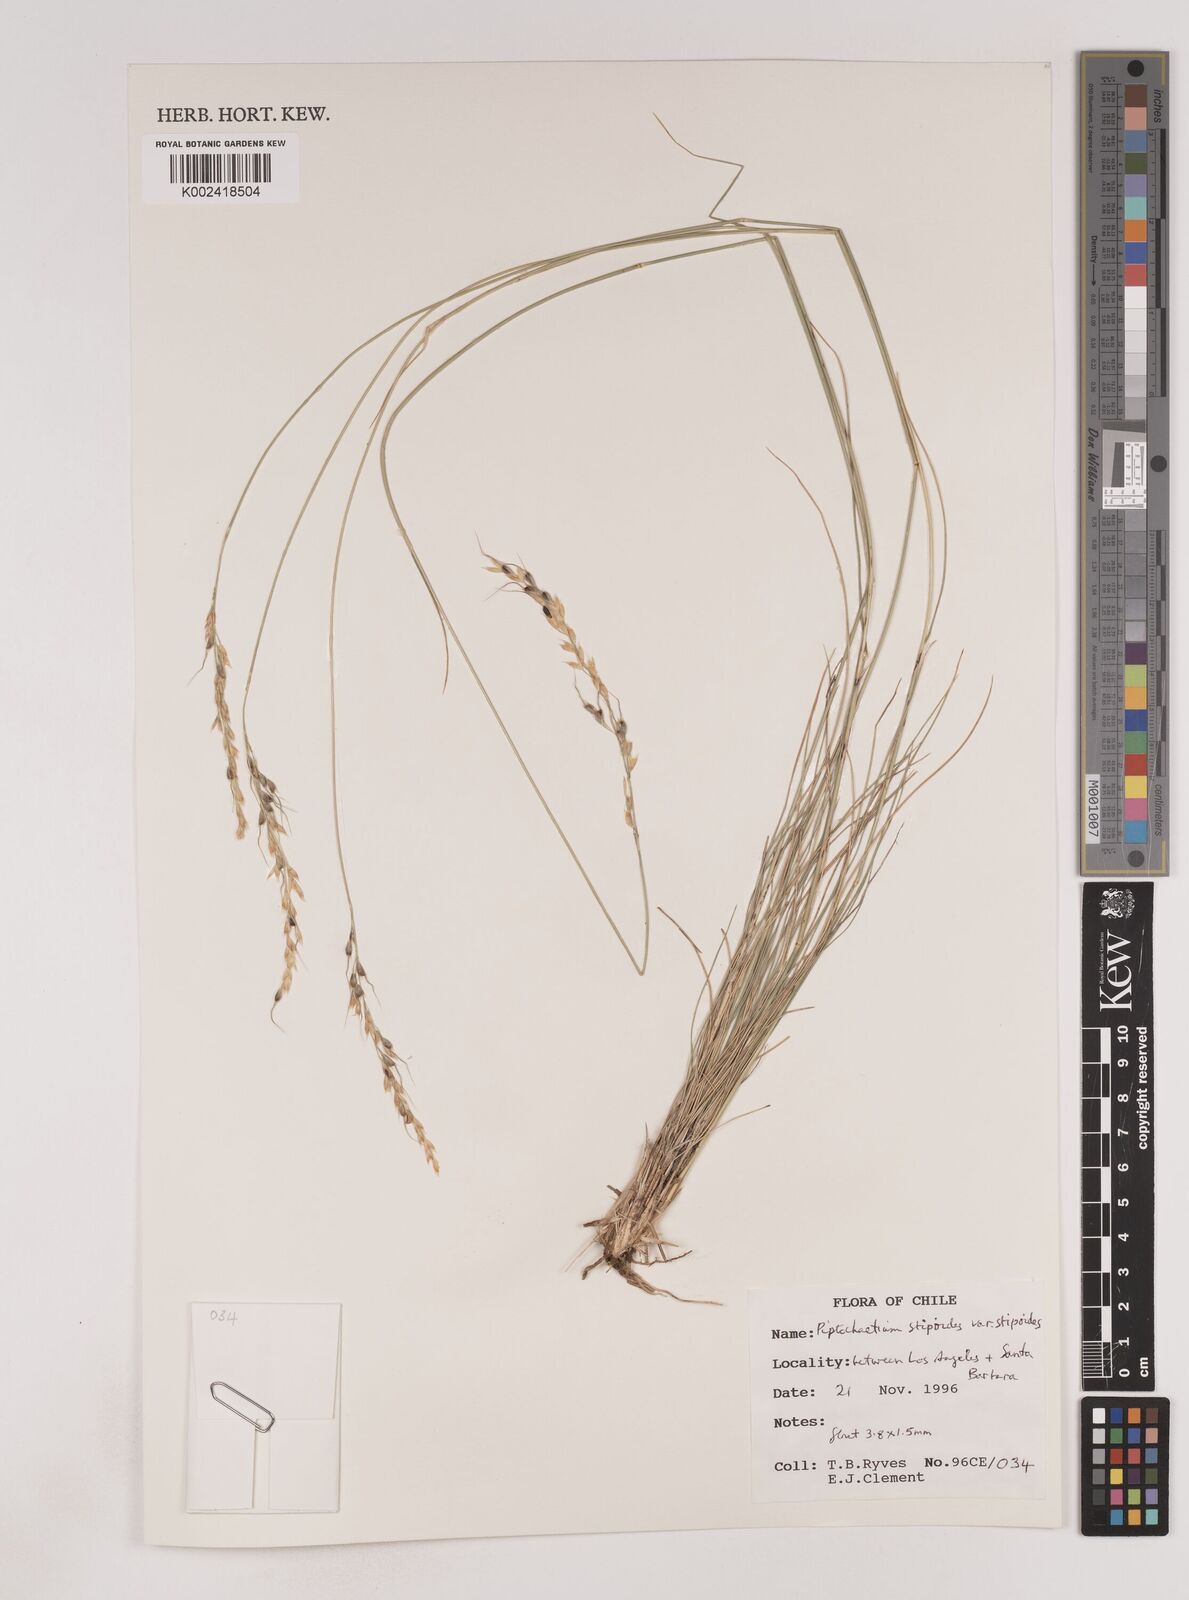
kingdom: Plantae
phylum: Tracheophyta
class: Liliopsida
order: Poales
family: Poaceae
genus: Piptochaetium
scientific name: Piptochaetium stipoides
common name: Purple speargrass
